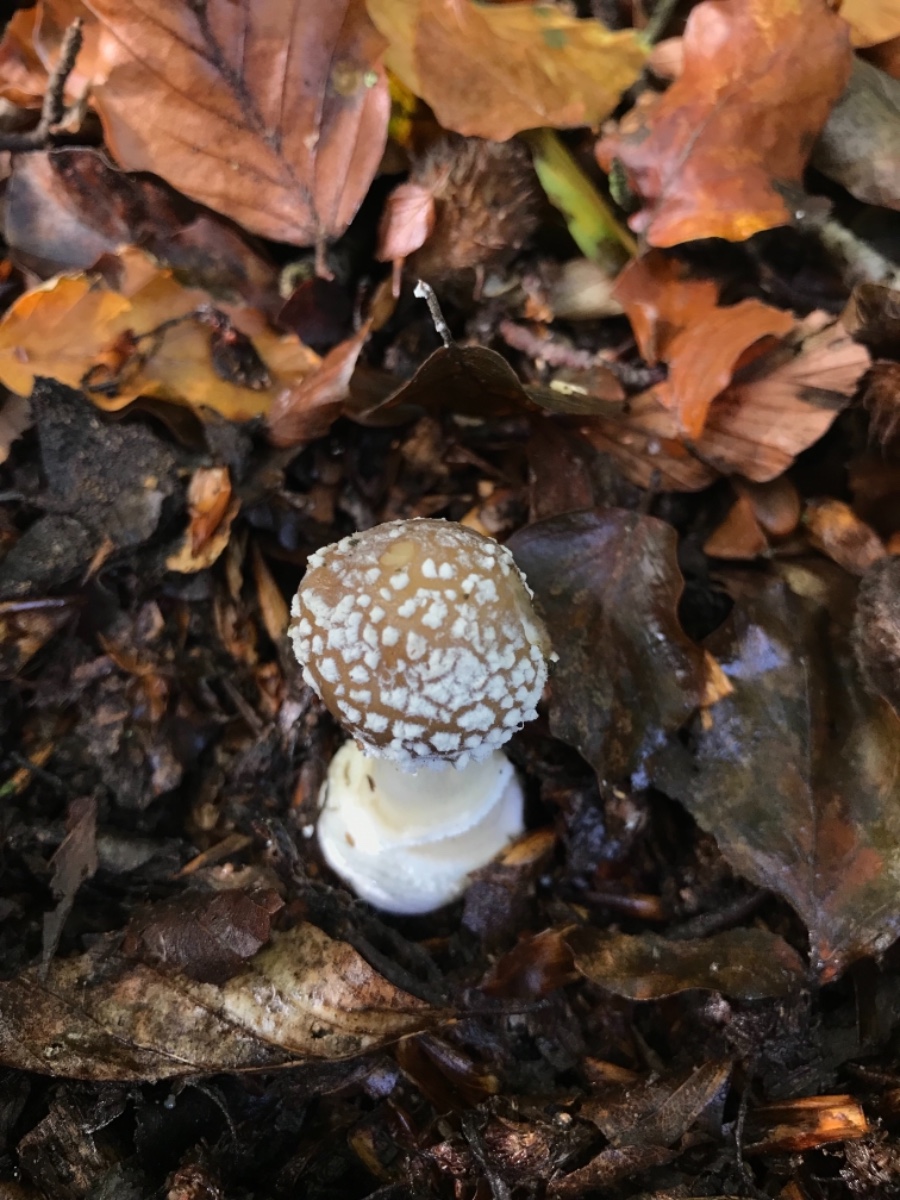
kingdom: Fungi
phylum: Basidiomycota
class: Agaricomycetes
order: Agaricales
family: Amanitaceae
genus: Amanita
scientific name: Amanita pantherina
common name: panter-fluesvamp
